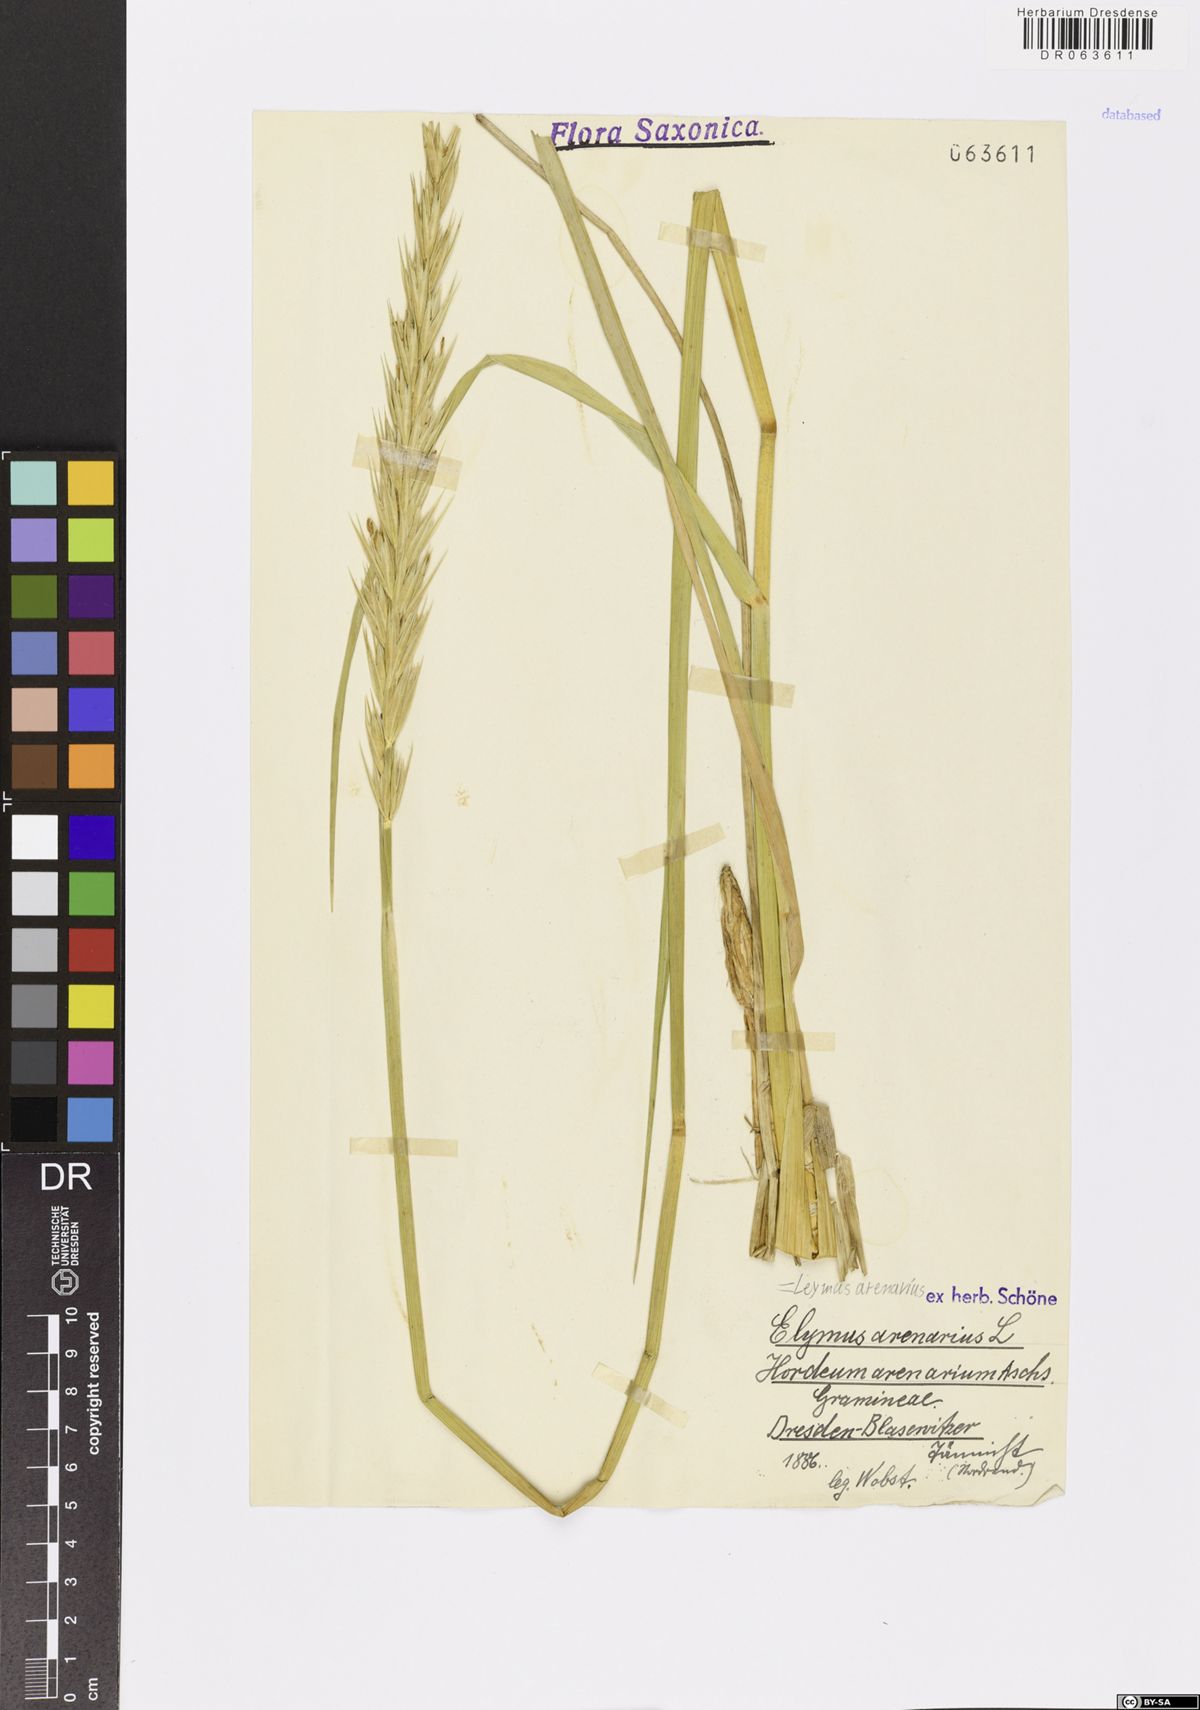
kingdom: Plantae
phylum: Tracheophyta
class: Liliopsida
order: Poales
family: Poaceae
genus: Leymus
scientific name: Leymus arenarius
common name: Lyme-grass
